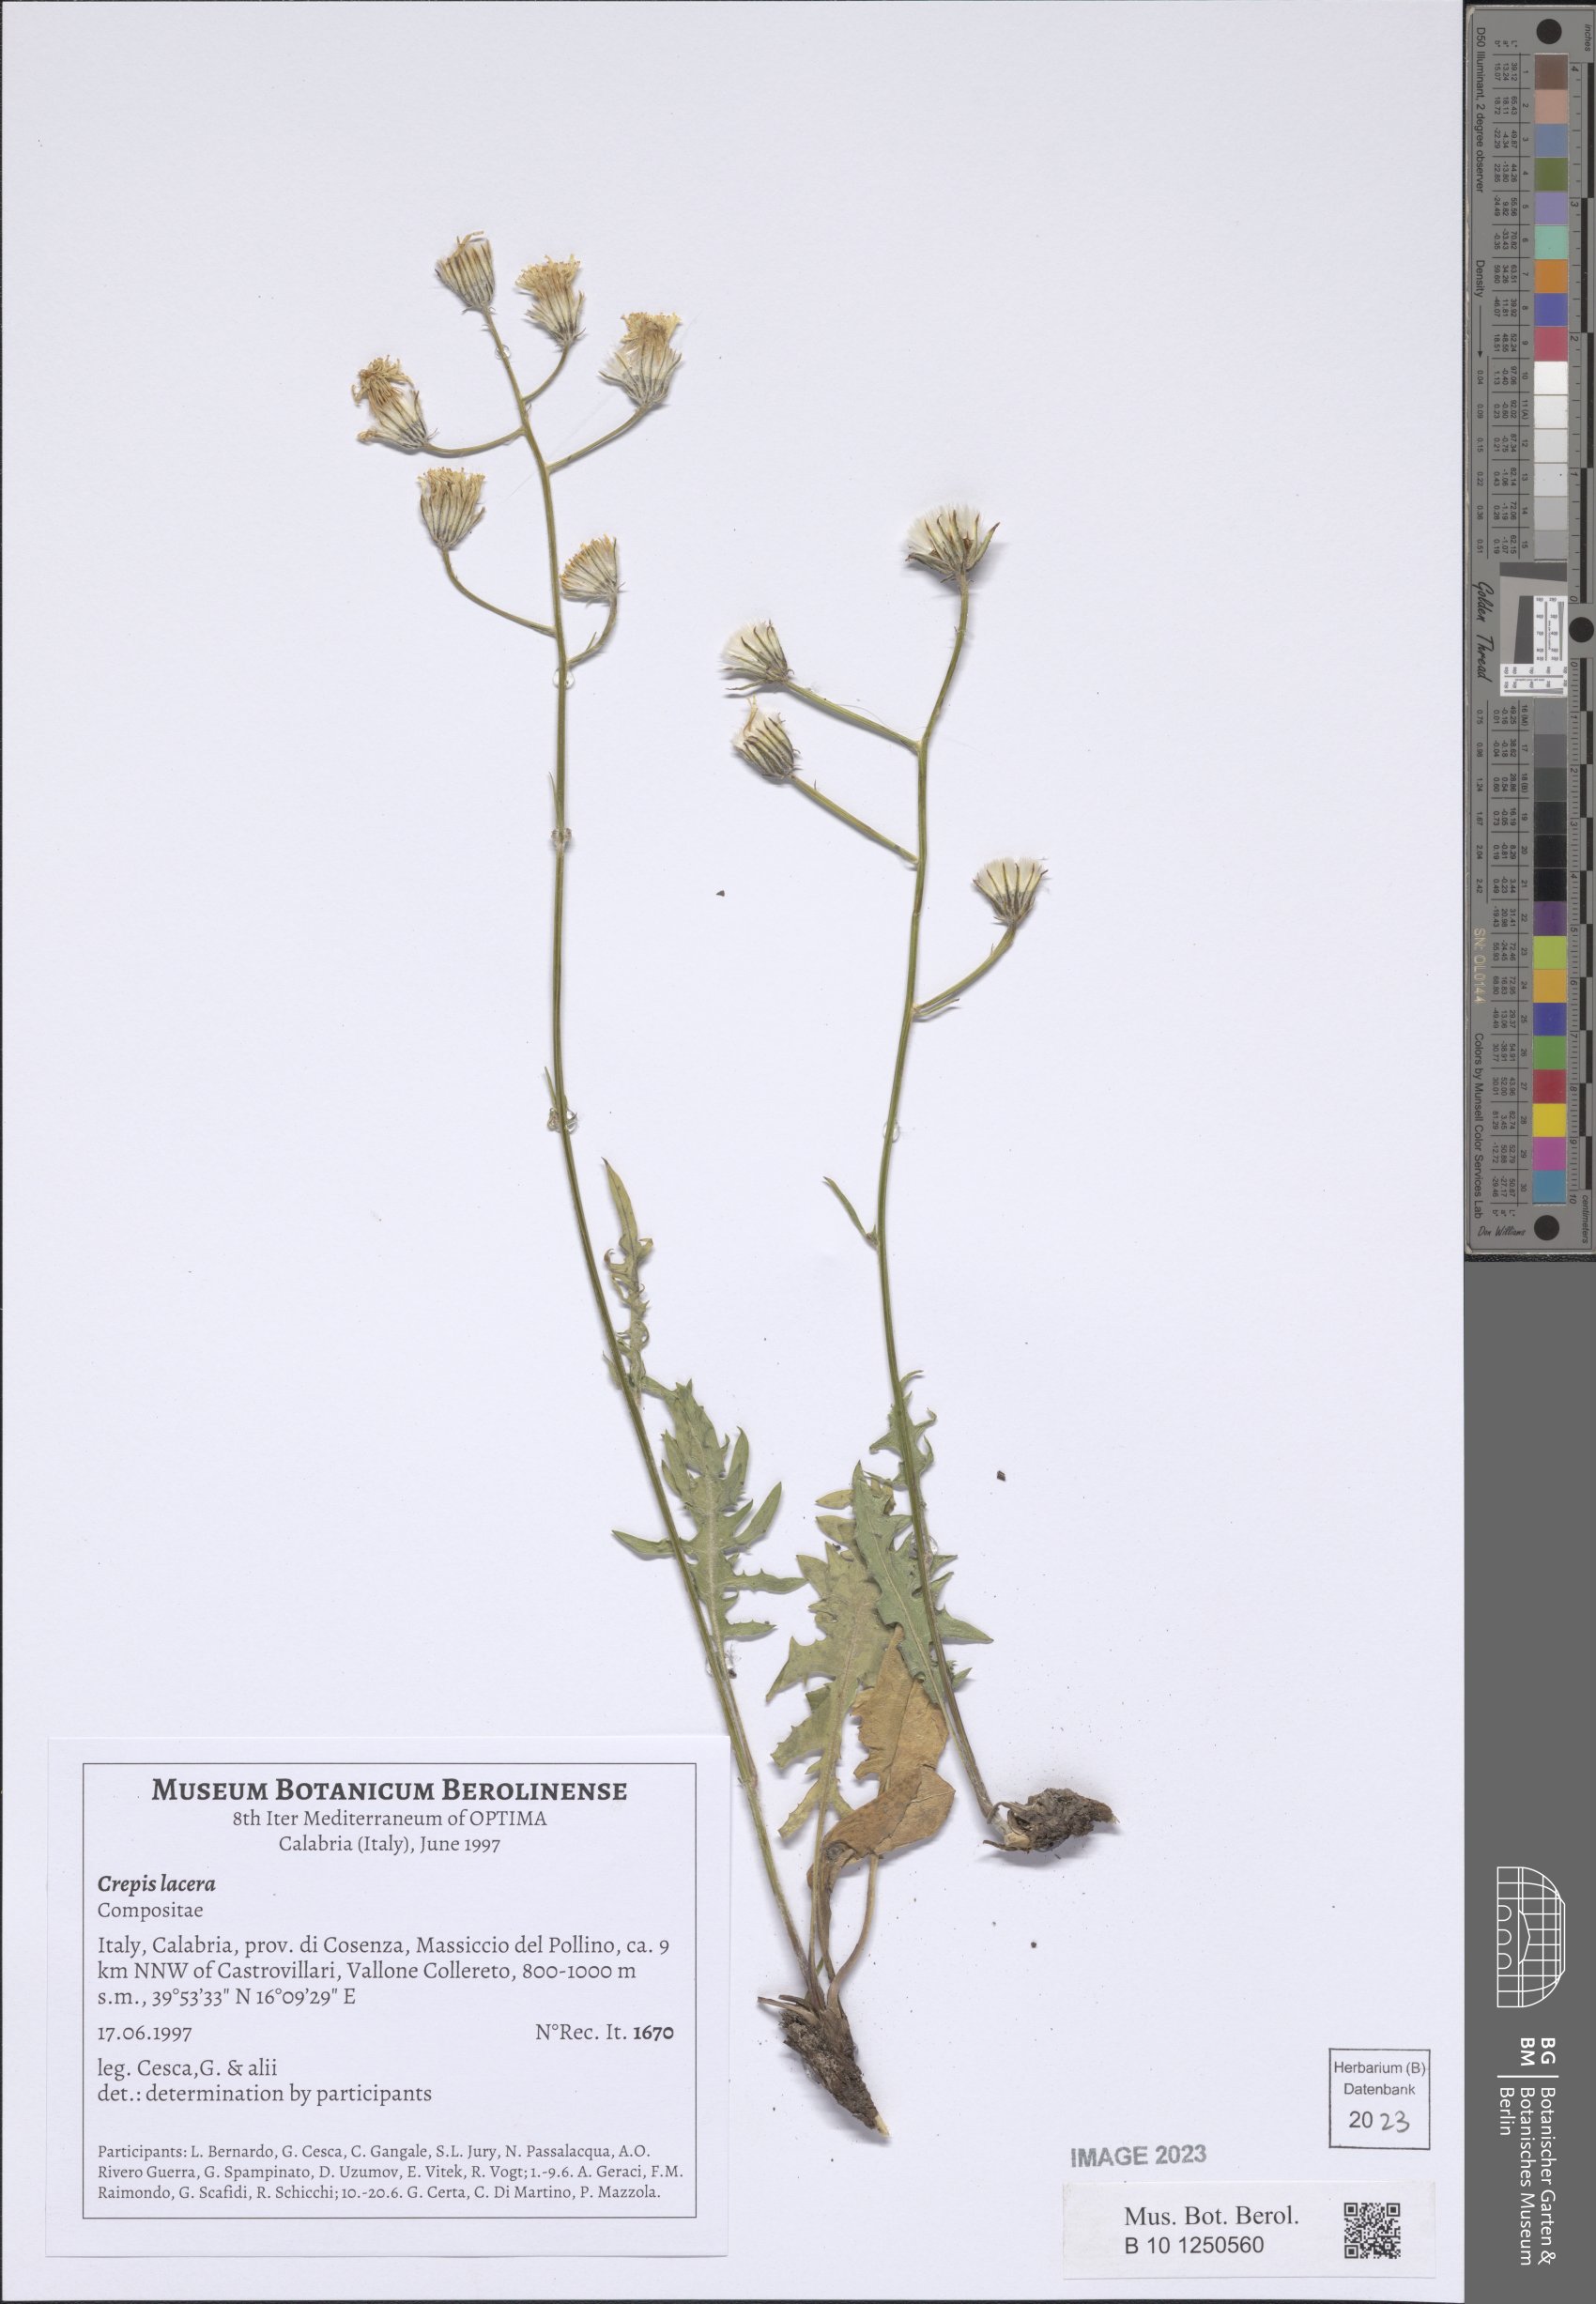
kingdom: Plantae
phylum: Tracheophyta
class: Magnoliopsida
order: Asterales
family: Asteraceae
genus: Crepis
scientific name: Crepis lacera
